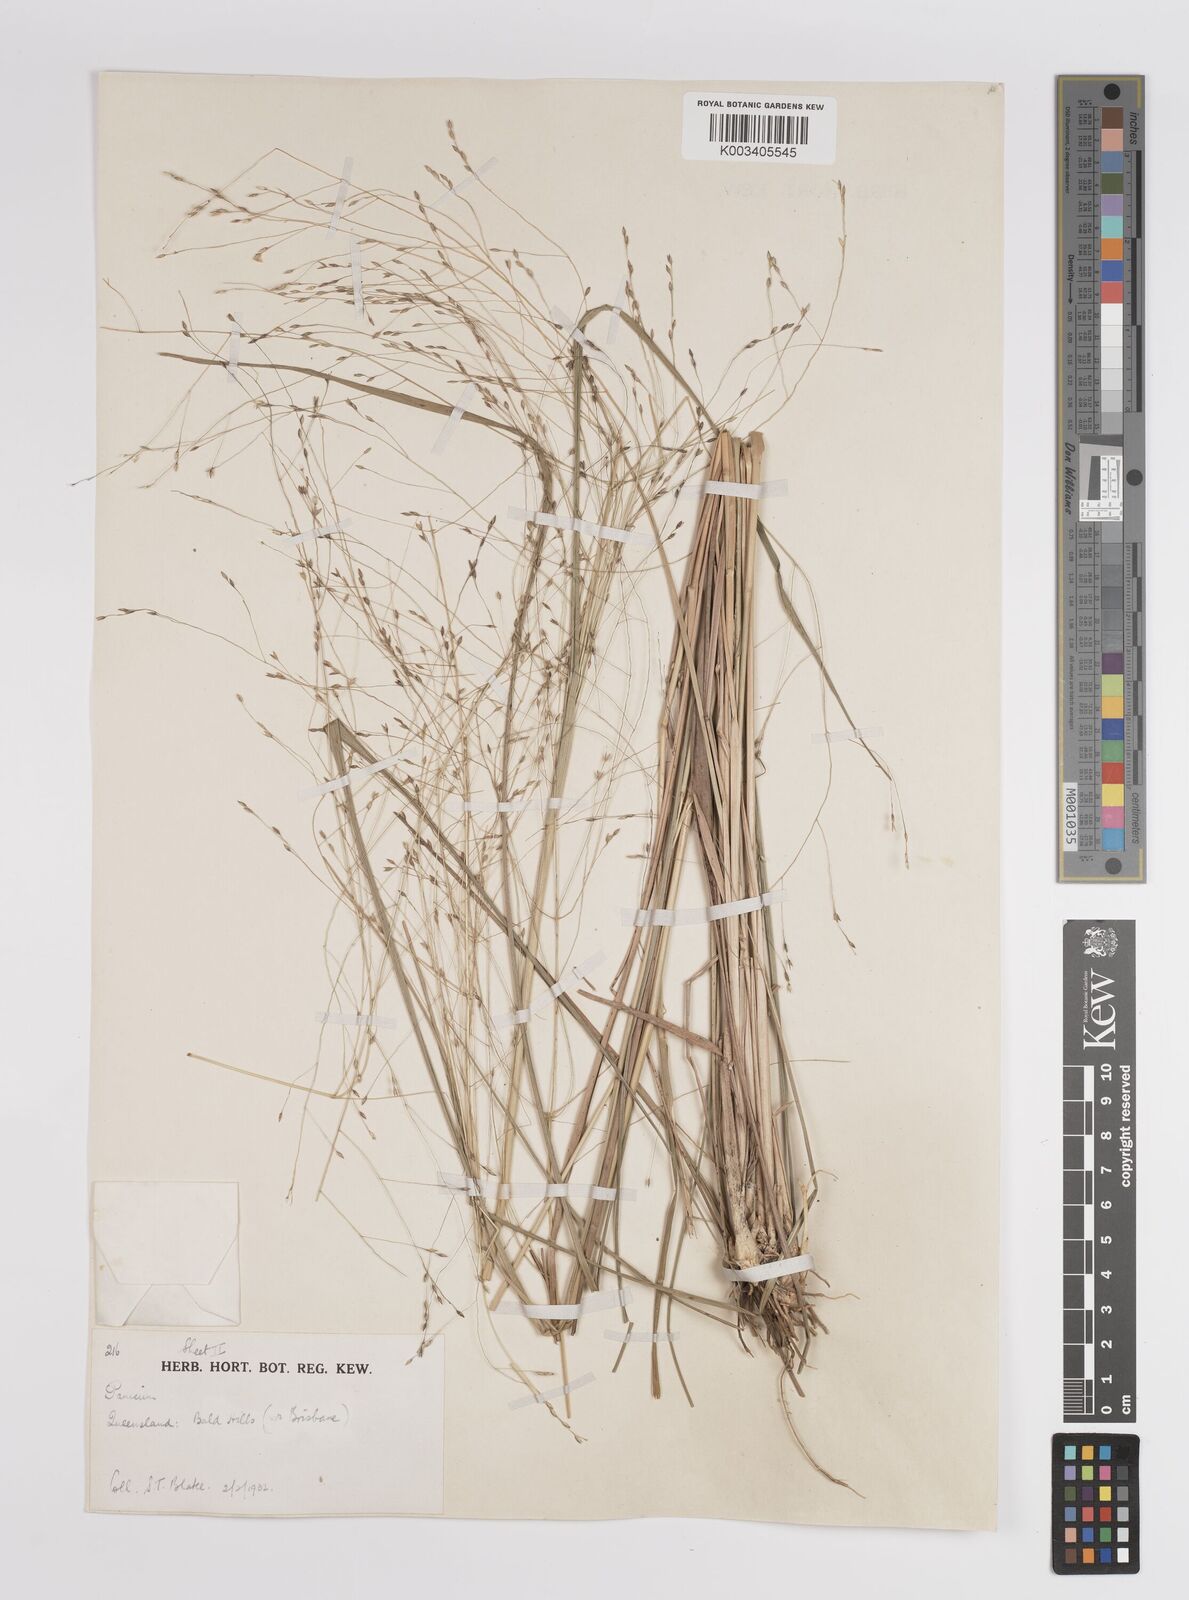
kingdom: Plantae
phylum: Tracheophyta
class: Liliopsida
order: Poales
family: Poaceae
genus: Panicum
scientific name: Panicum
